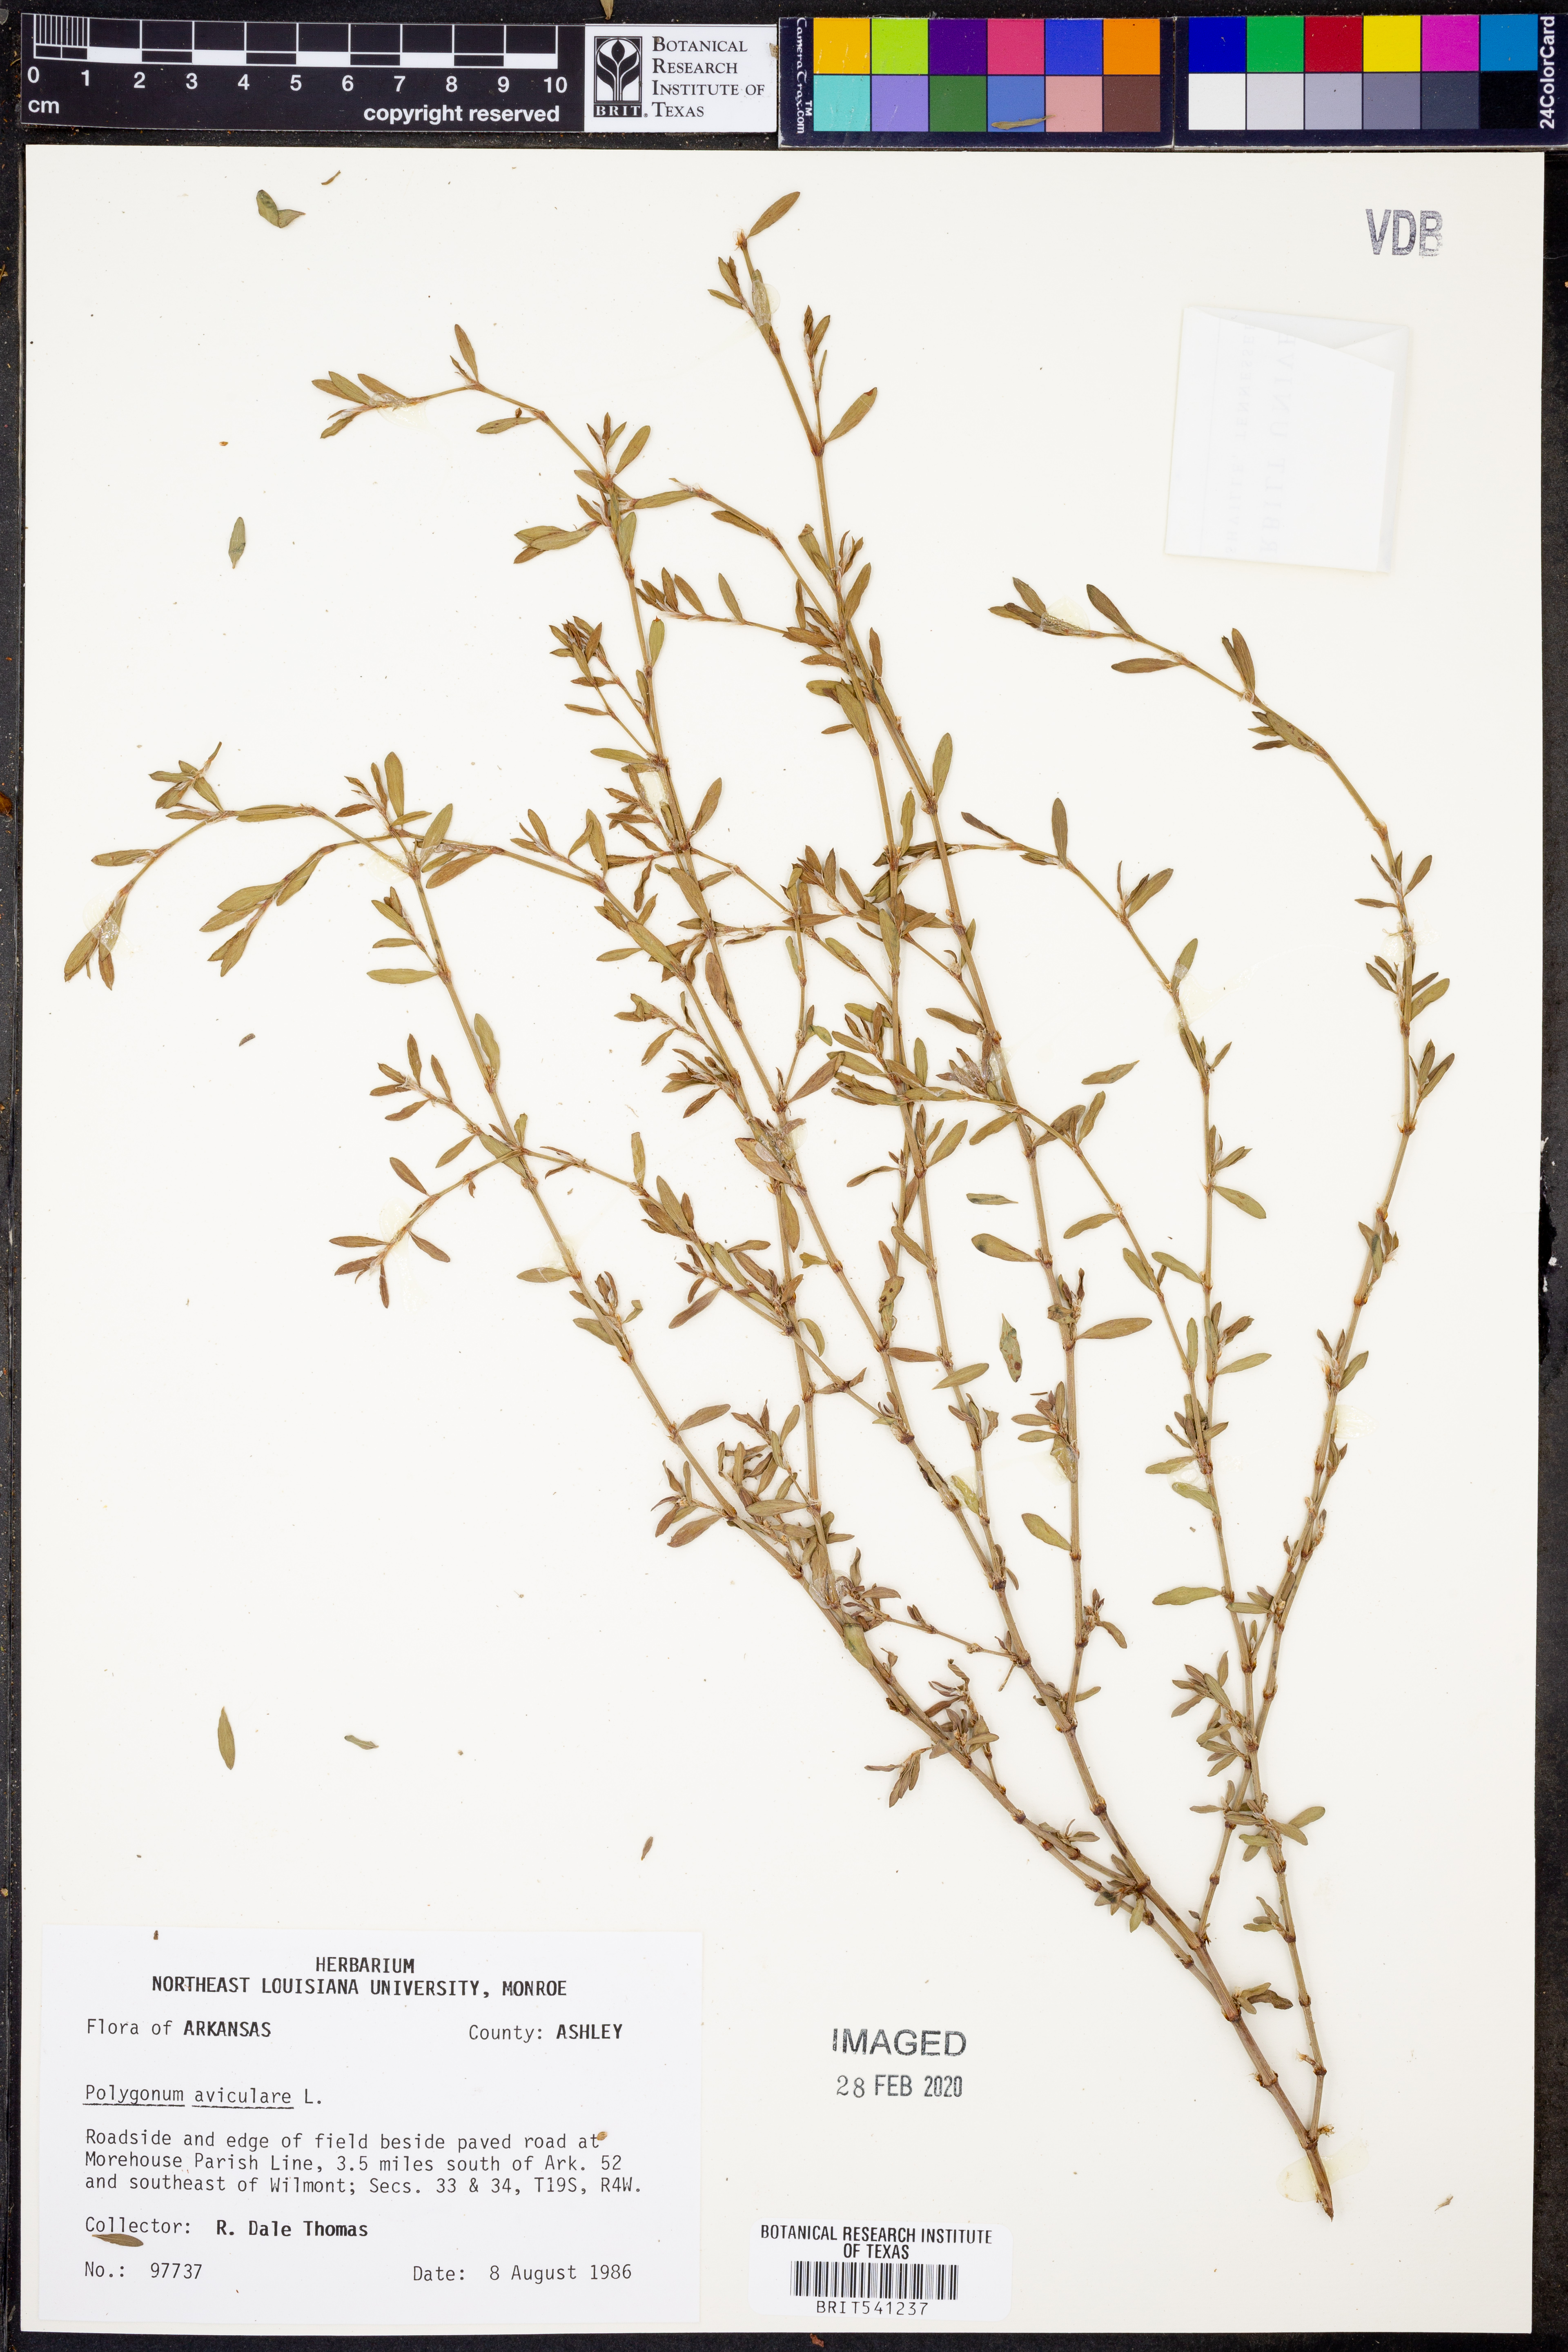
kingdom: Plantae
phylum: Tracheophyta
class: Magnoliopsida
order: Caryophyllales
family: Polygonaceae
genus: Polygonum
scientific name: Polygonum aviculare
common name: Prostrate knotweed
